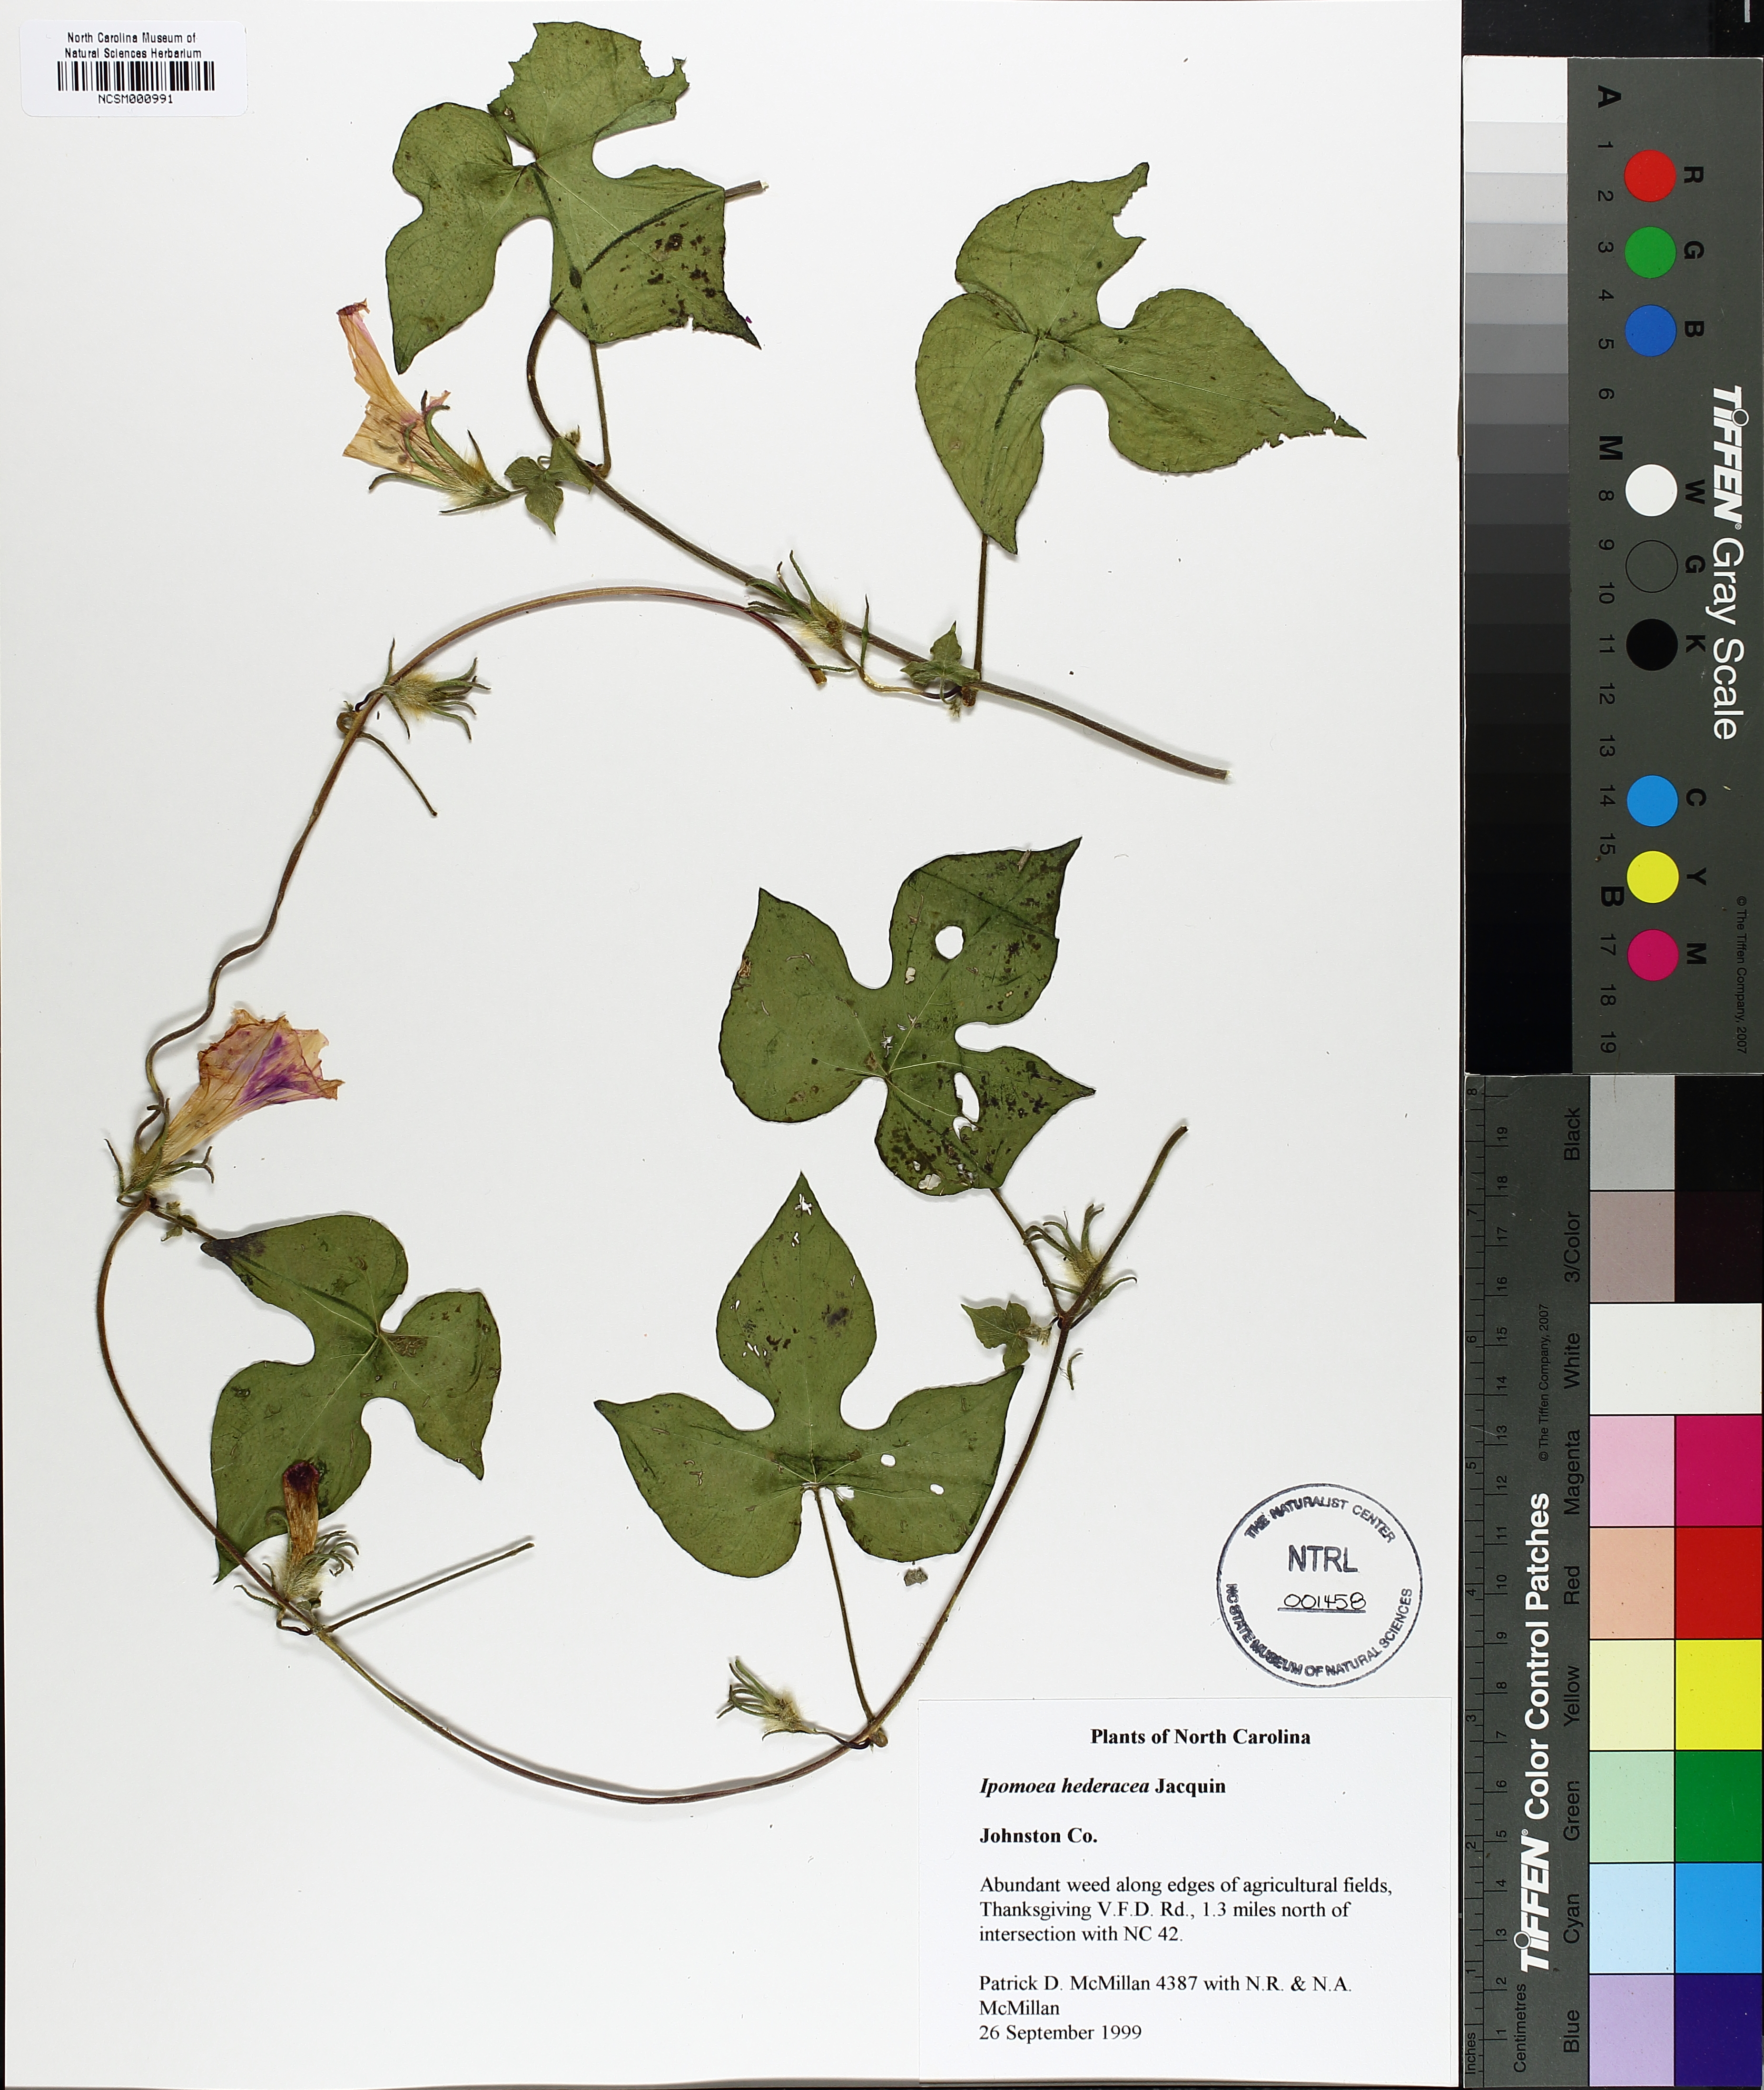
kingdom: Plantae
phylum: Tracheophyta
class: Magnoliopsida
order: Solanales
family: Convolvulaceae
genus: Ipomoea
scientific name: Ipomoea hederacea
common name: Ivy-leaved morning-glory
